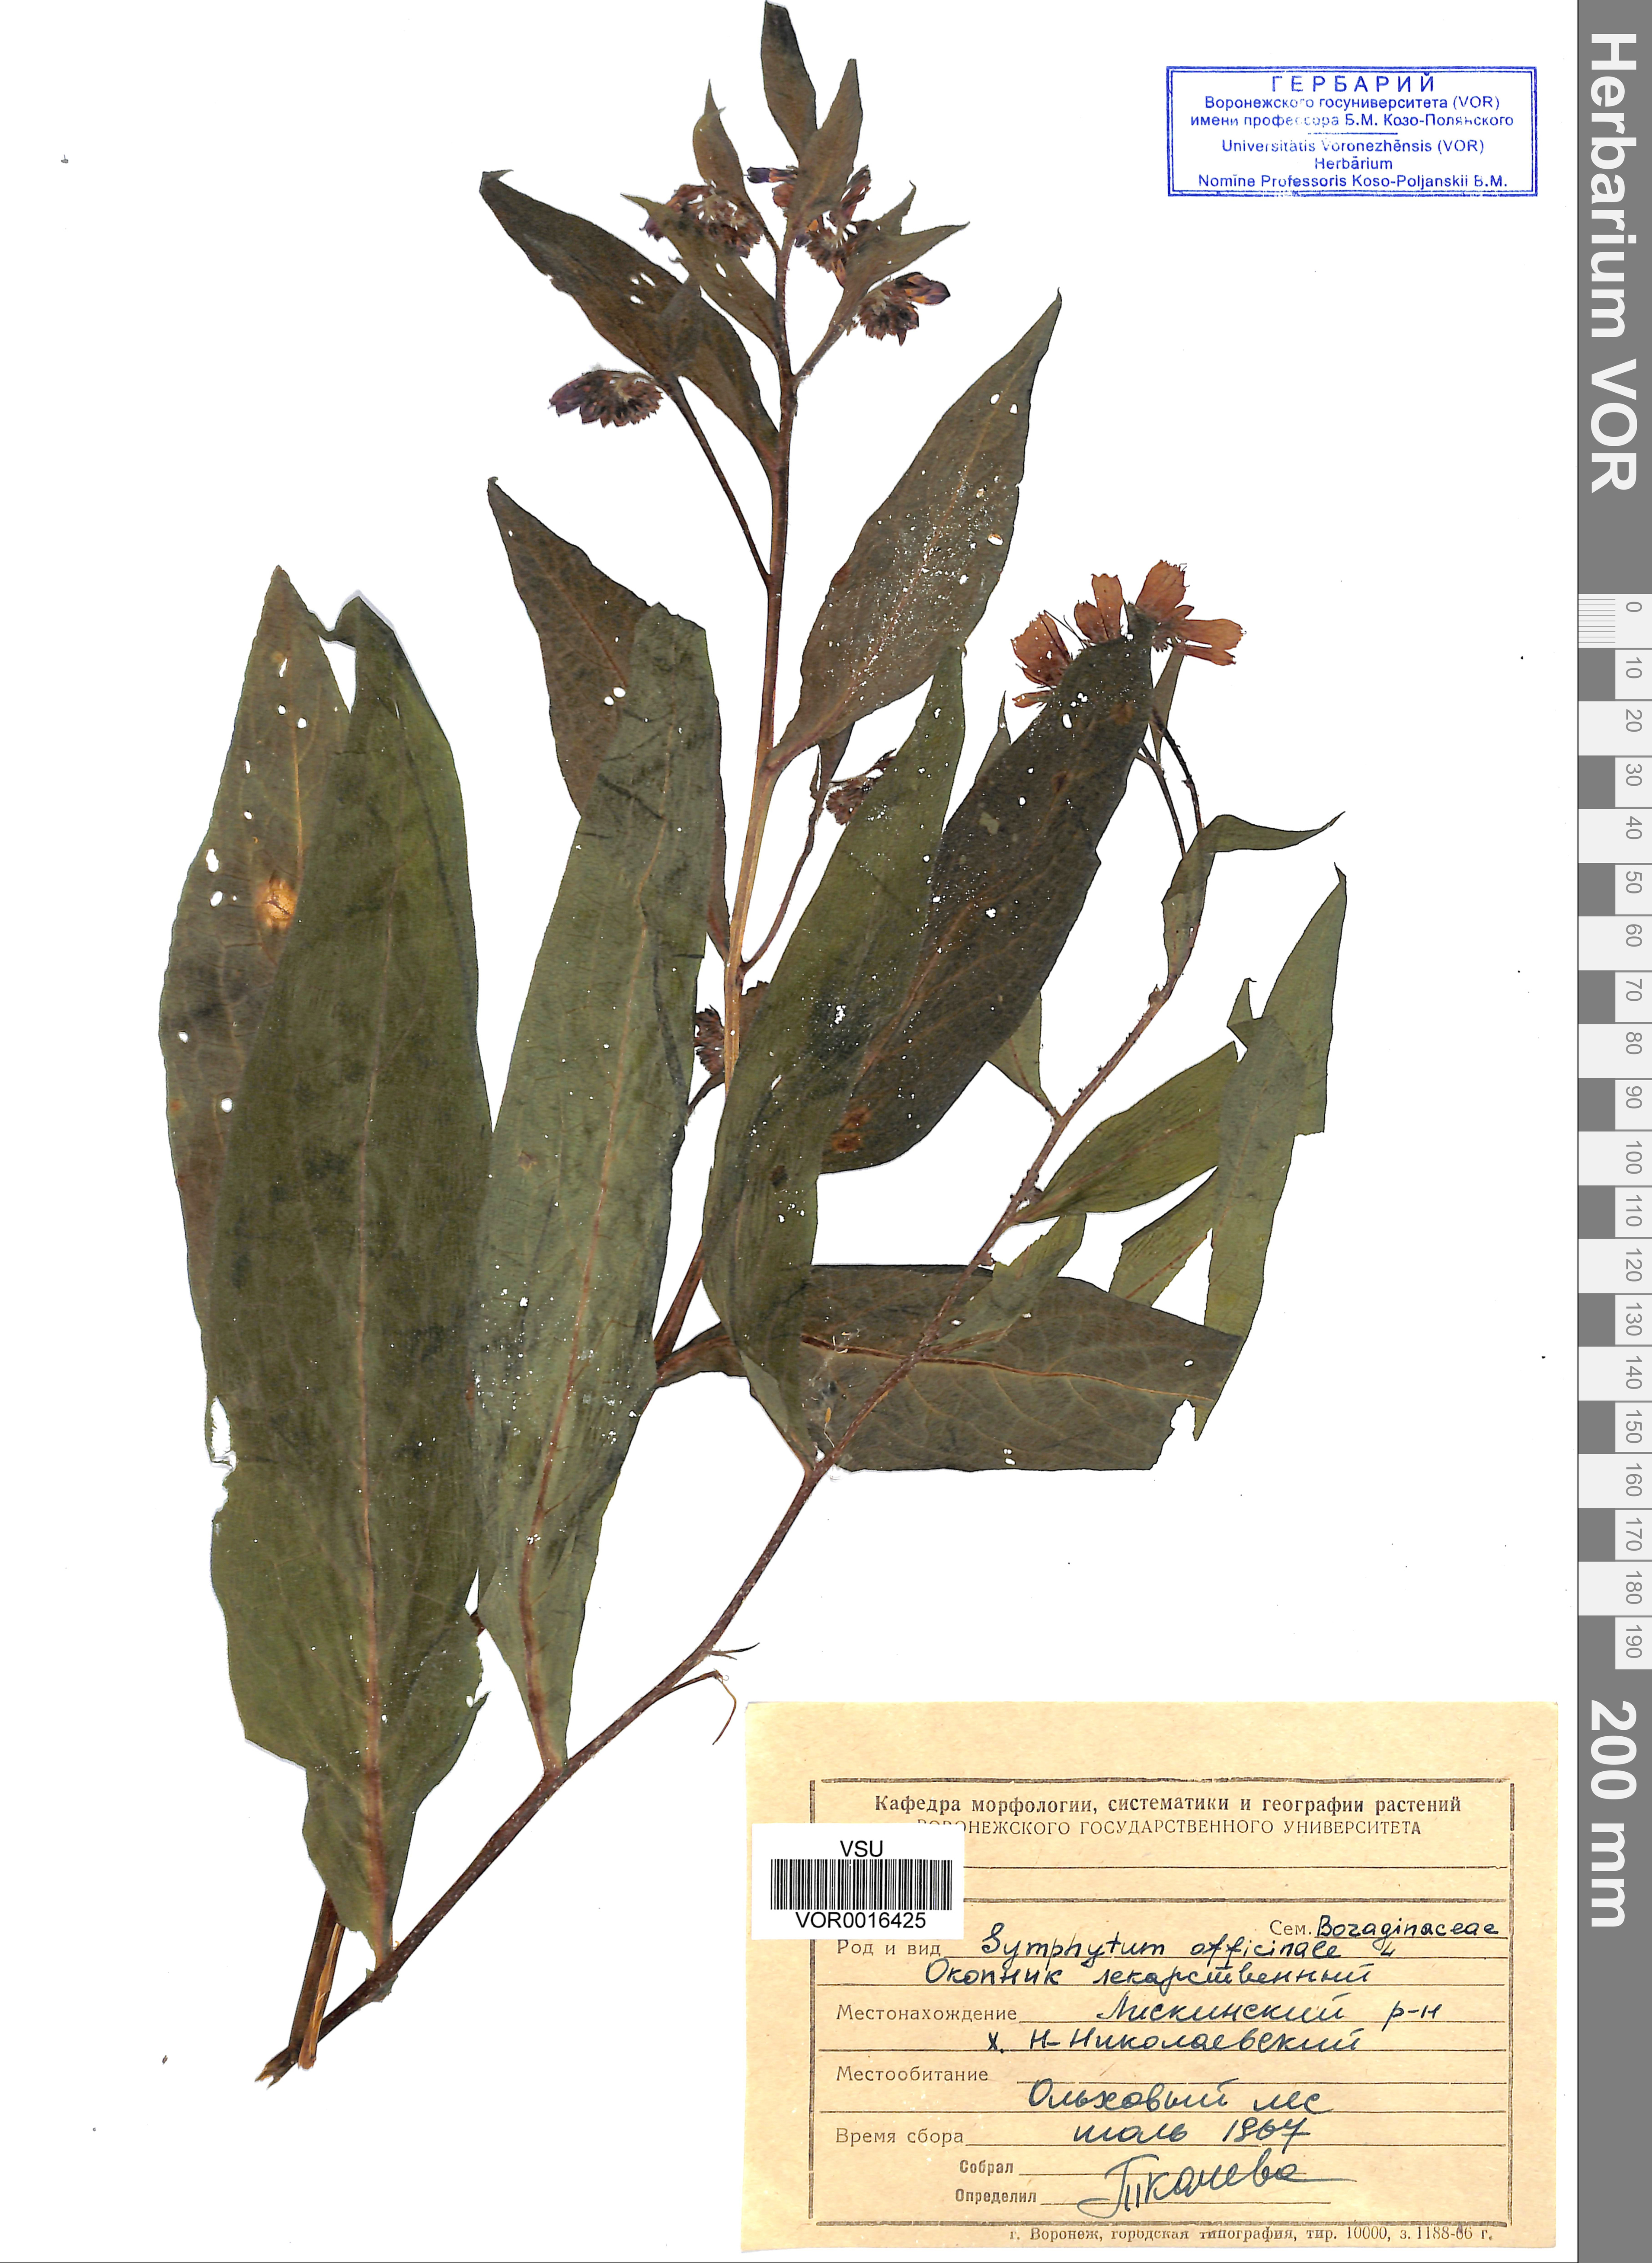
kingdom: Plantae
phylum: Tracheophyta
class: Magnoliopsida
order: Boraginales
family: Boraginaceae
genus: Symphytum
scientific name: Symphytum officinale
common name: Common comfrey
